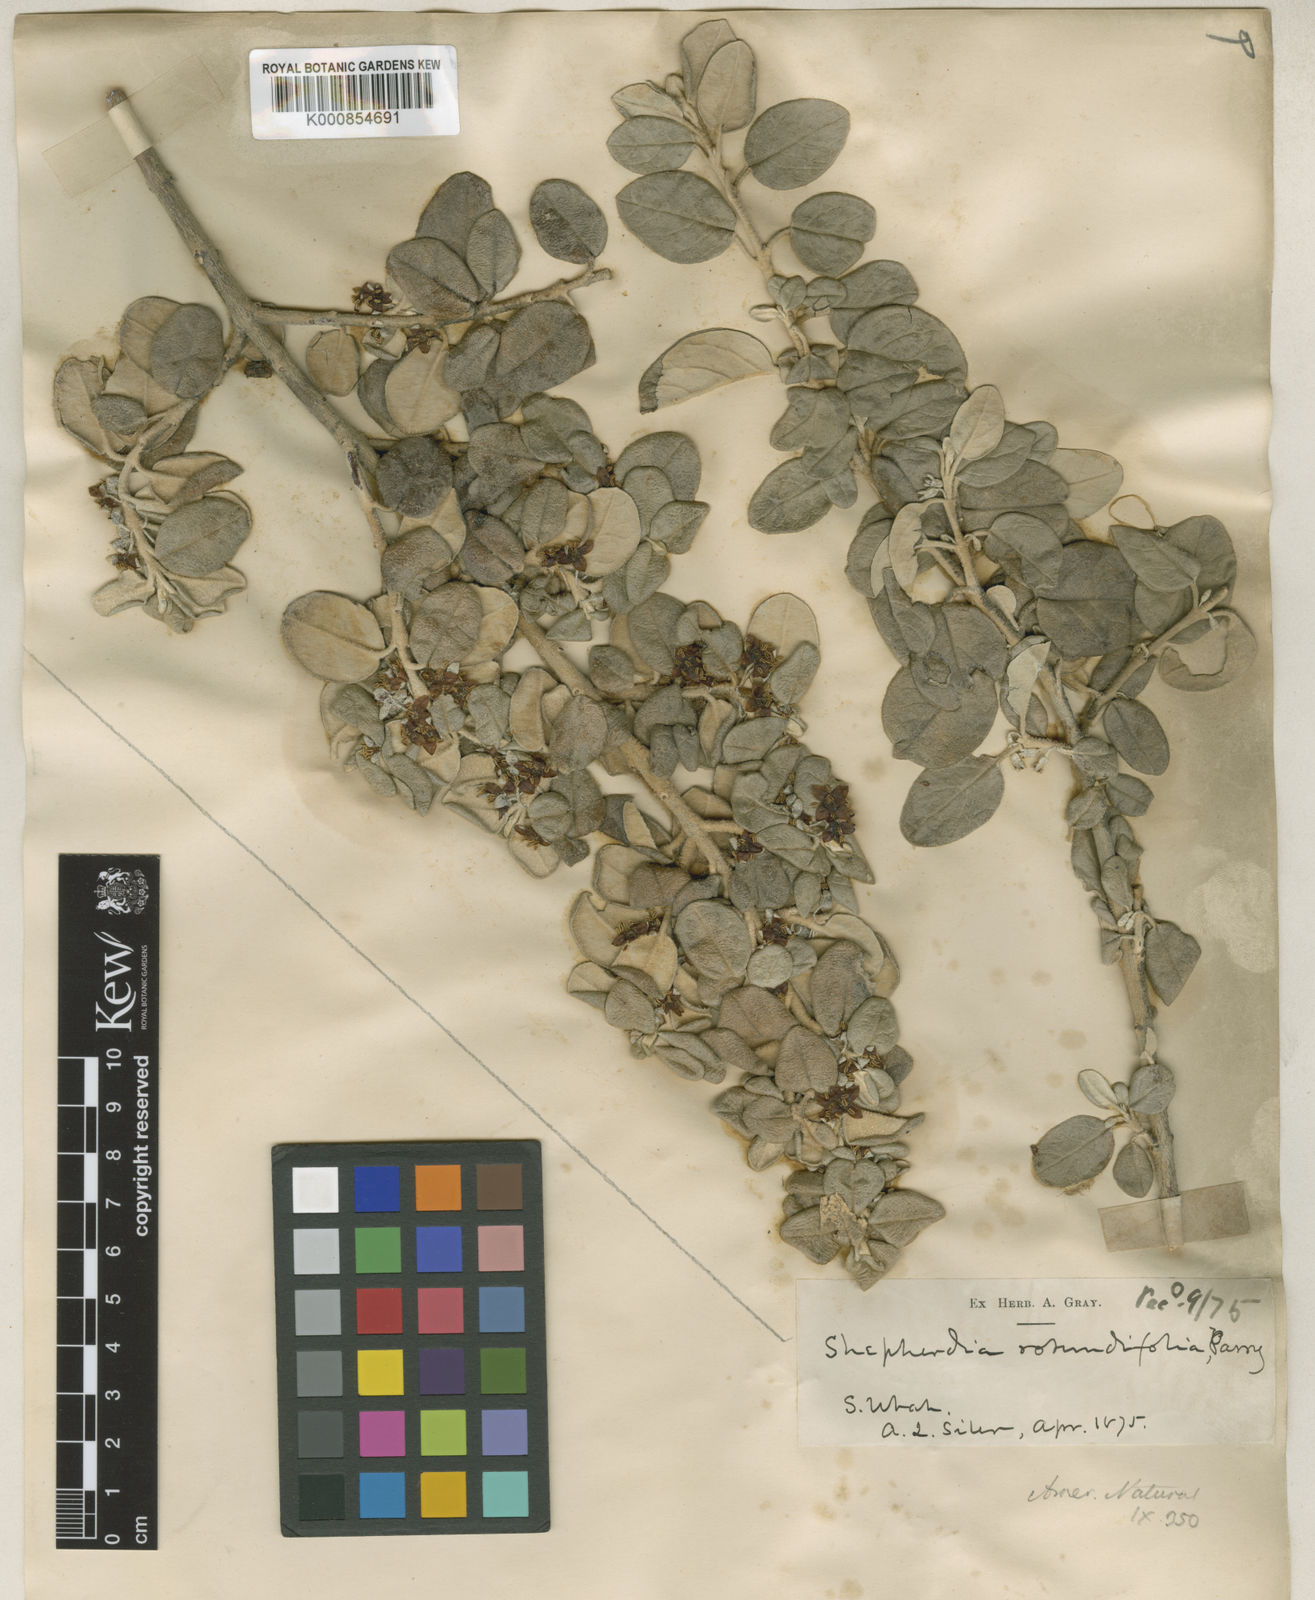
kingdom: Plantae
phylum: Tracheophyta
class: Magnoliopsida
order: Rosales
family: Elaeagnaceae
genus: Shepherdia
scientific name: Shepherdia rotundifolia
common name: Silverscale
